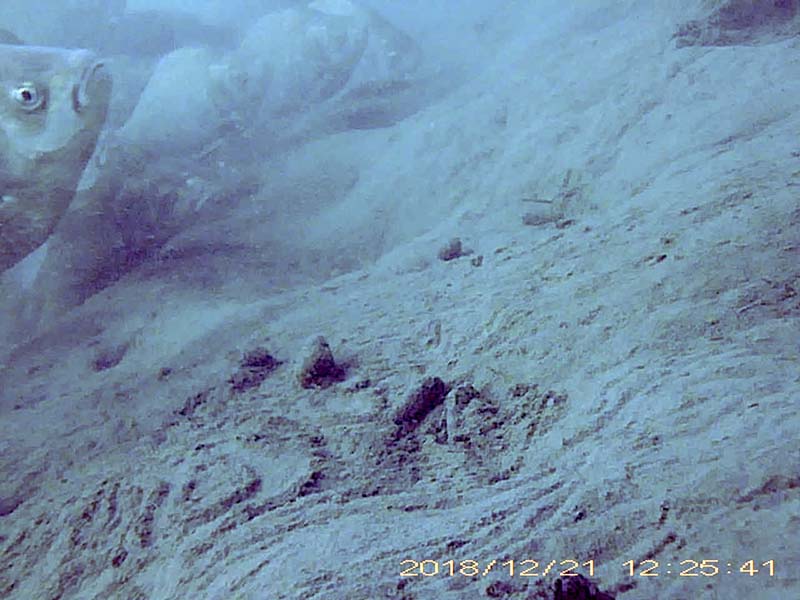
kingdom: Animalia
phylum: Chordata
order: Cypriniformes
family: Cyprinidae
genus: Carassius
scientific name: Carassius langsdorfii
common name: ギンブナ
